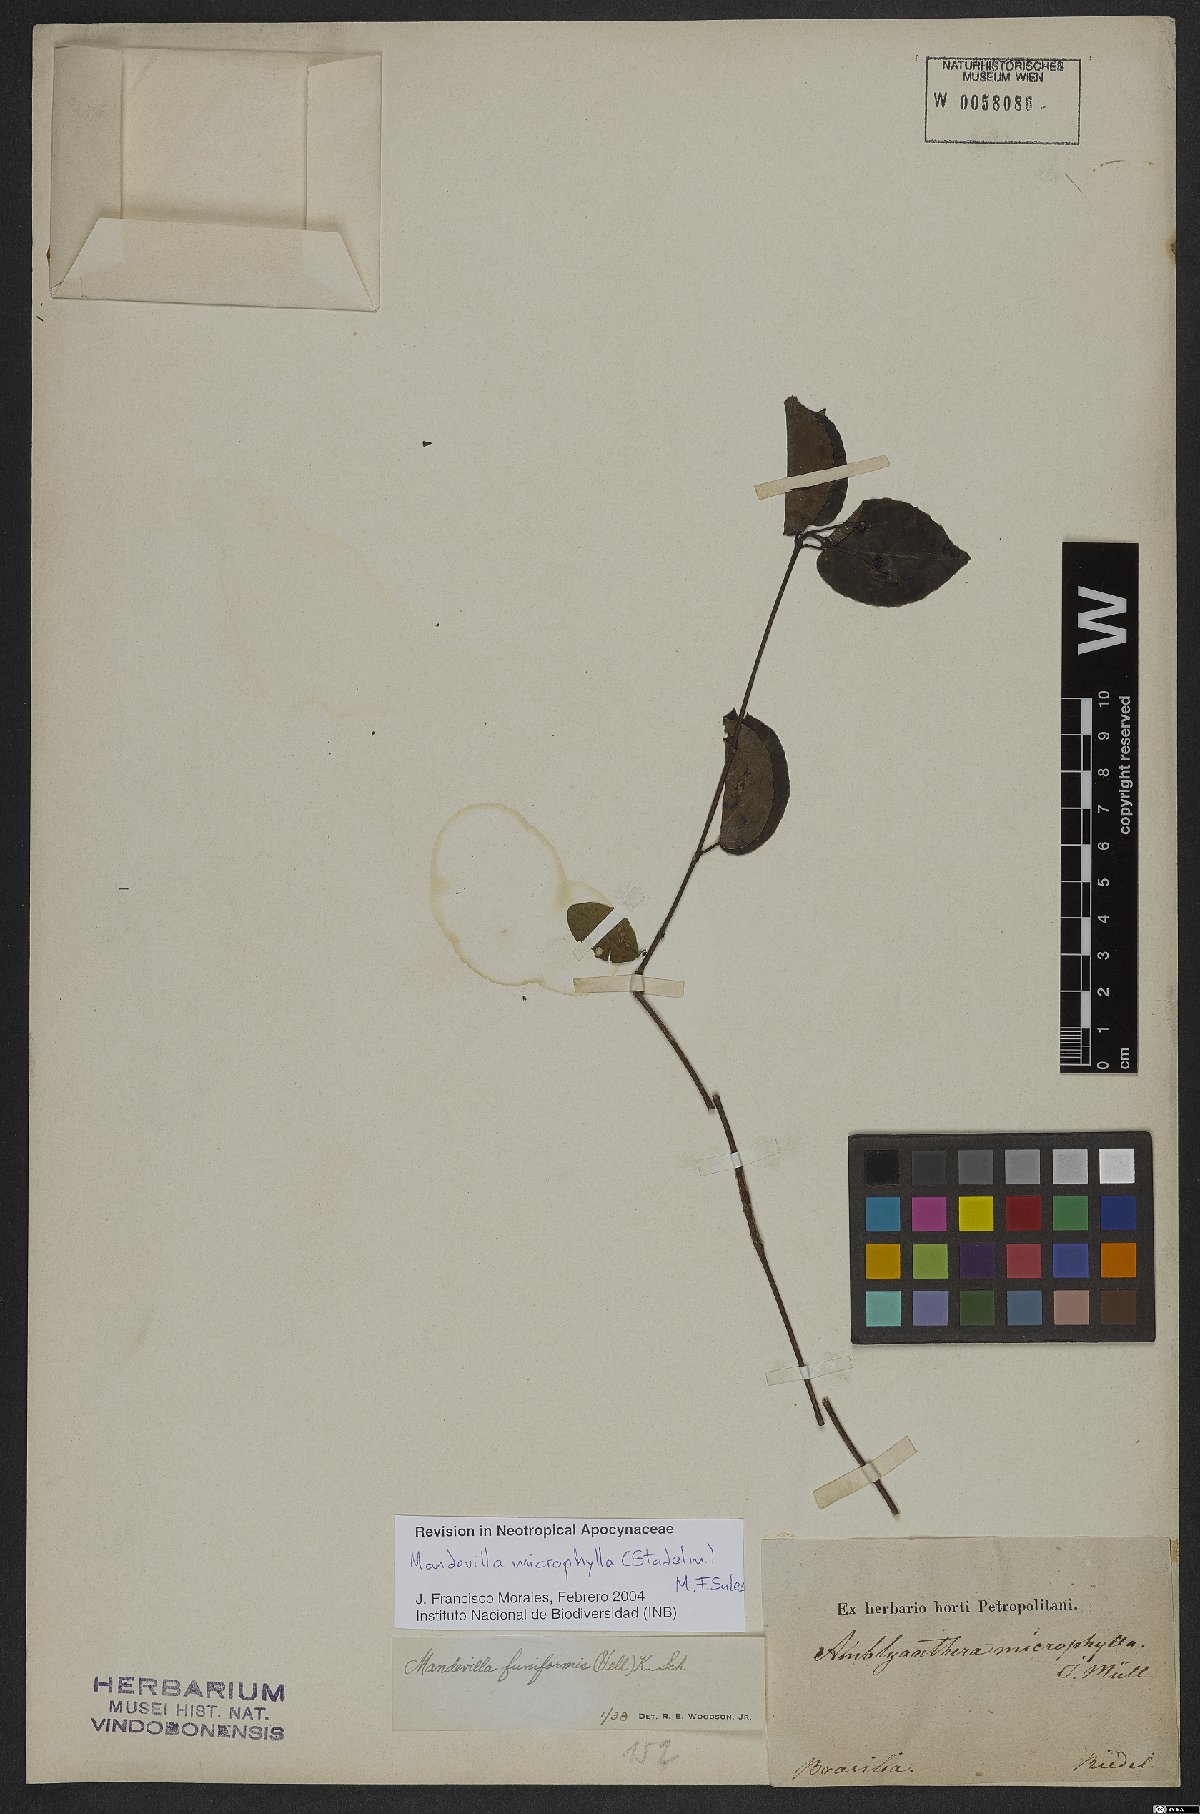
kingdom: Plantae
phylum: Tracheophyta
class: Magnoliopsida
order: Gentianales
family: Apocynaceae
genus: Mandevilla
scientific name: Mandevilla microphylla
